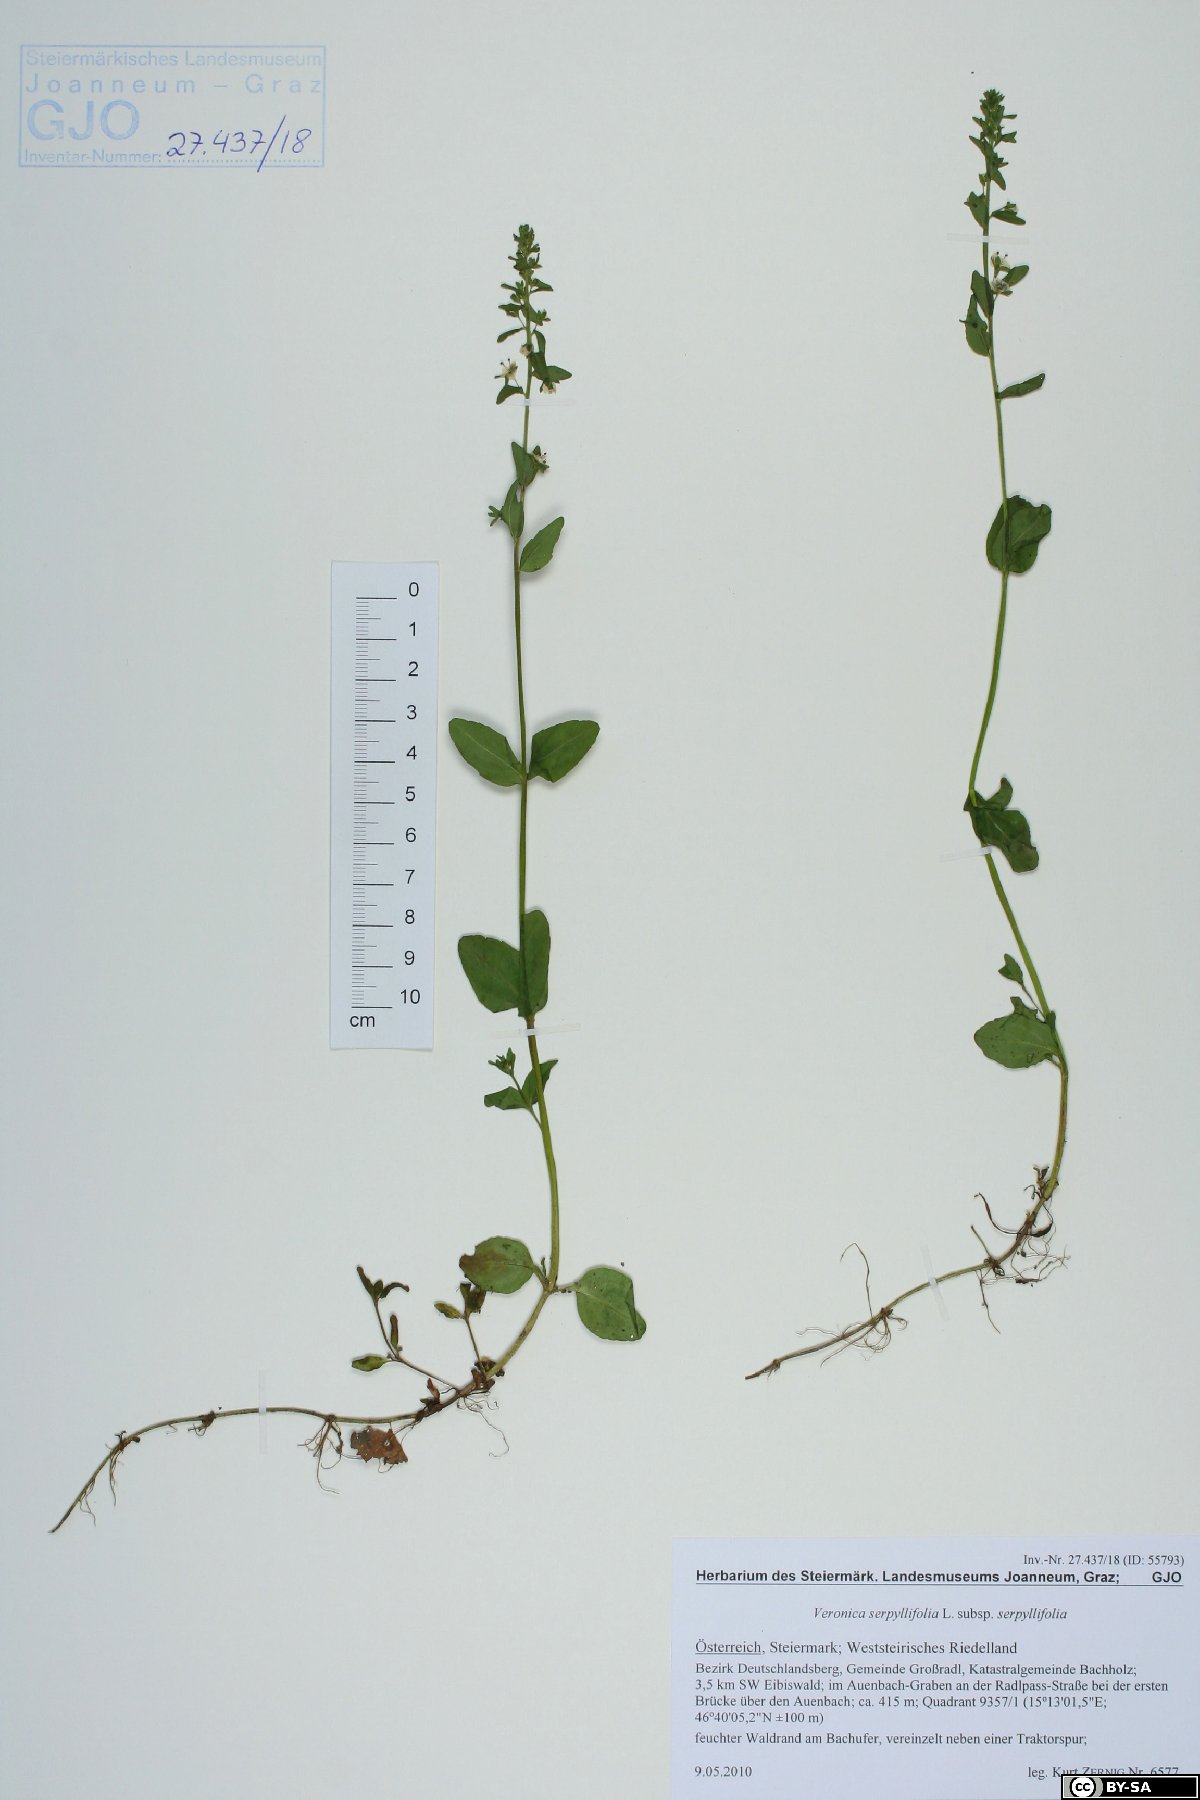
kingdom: Plantae
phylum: Tracheophyta
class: Magnoliopsida
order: Lamiales
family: Plantaginaceae
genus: Veronica
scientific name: Veronica serpyllifolia
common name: Thyme-leaved speedwell
